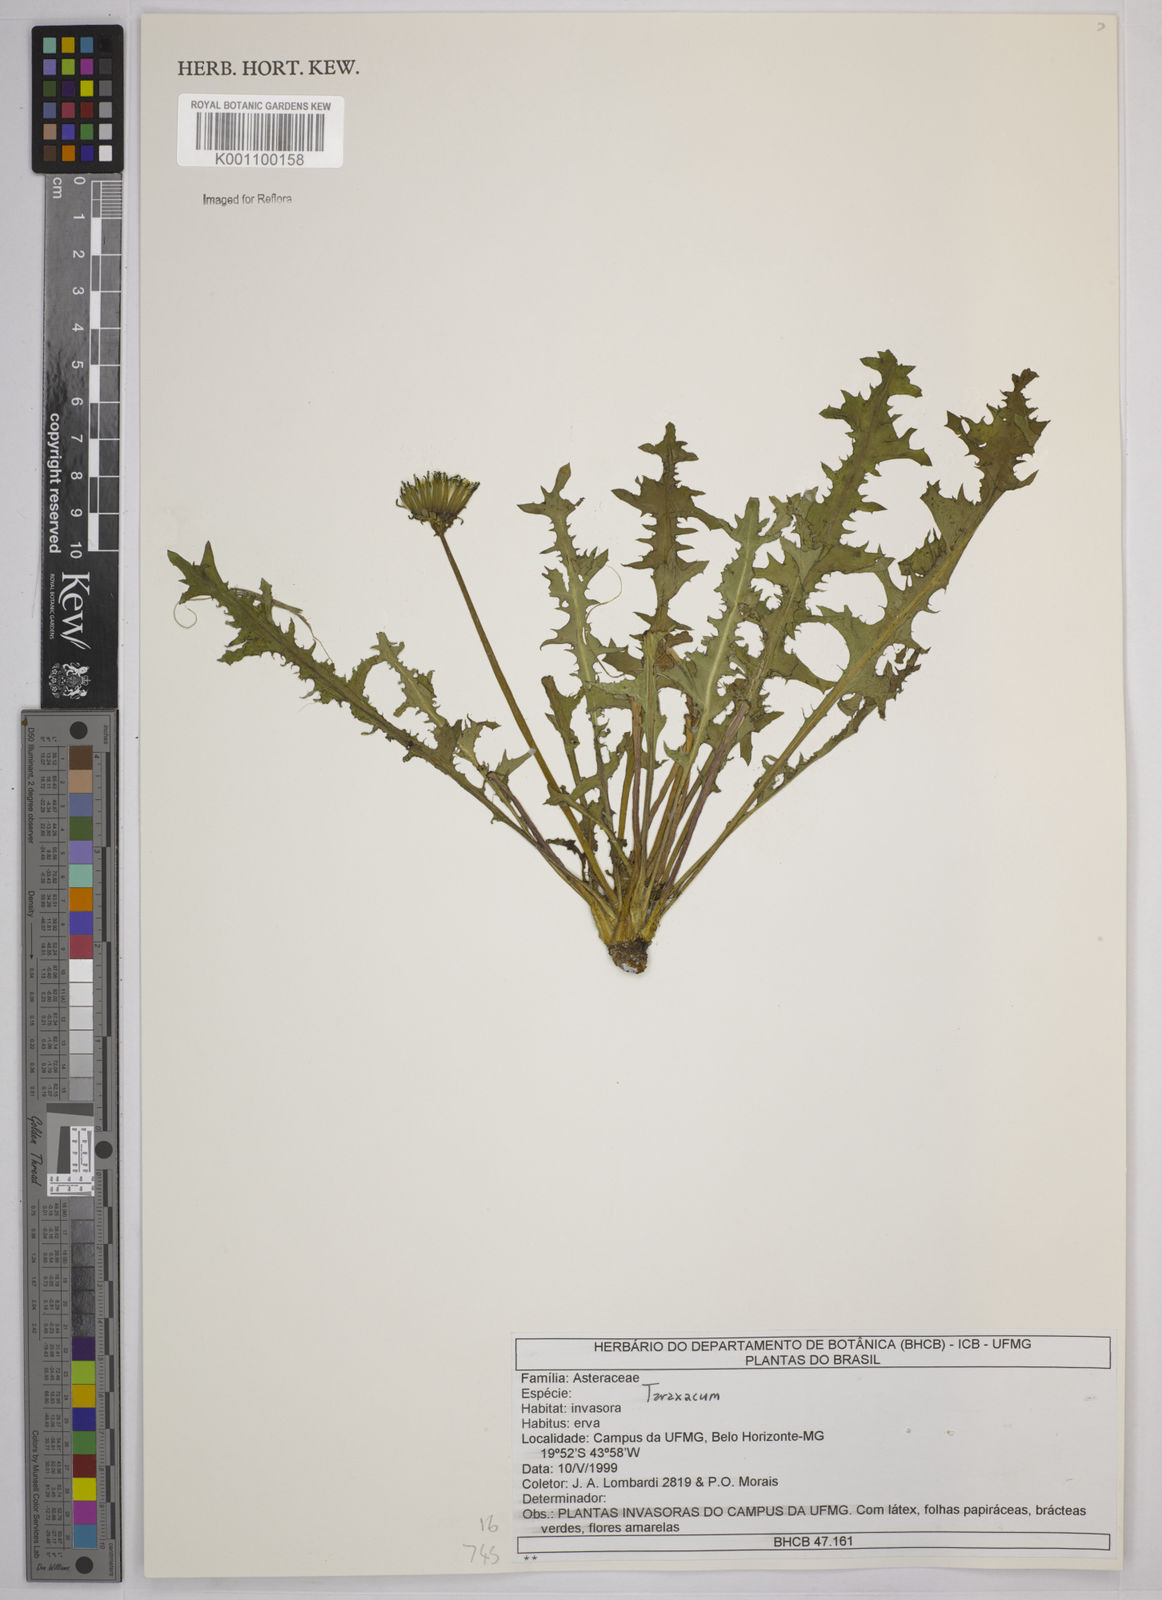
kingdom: Plantae
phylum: Tracheophyta
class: Magnoliopsida
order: Asterales
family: Asteraceae
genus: Taraxacum
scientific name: Taraxacum
